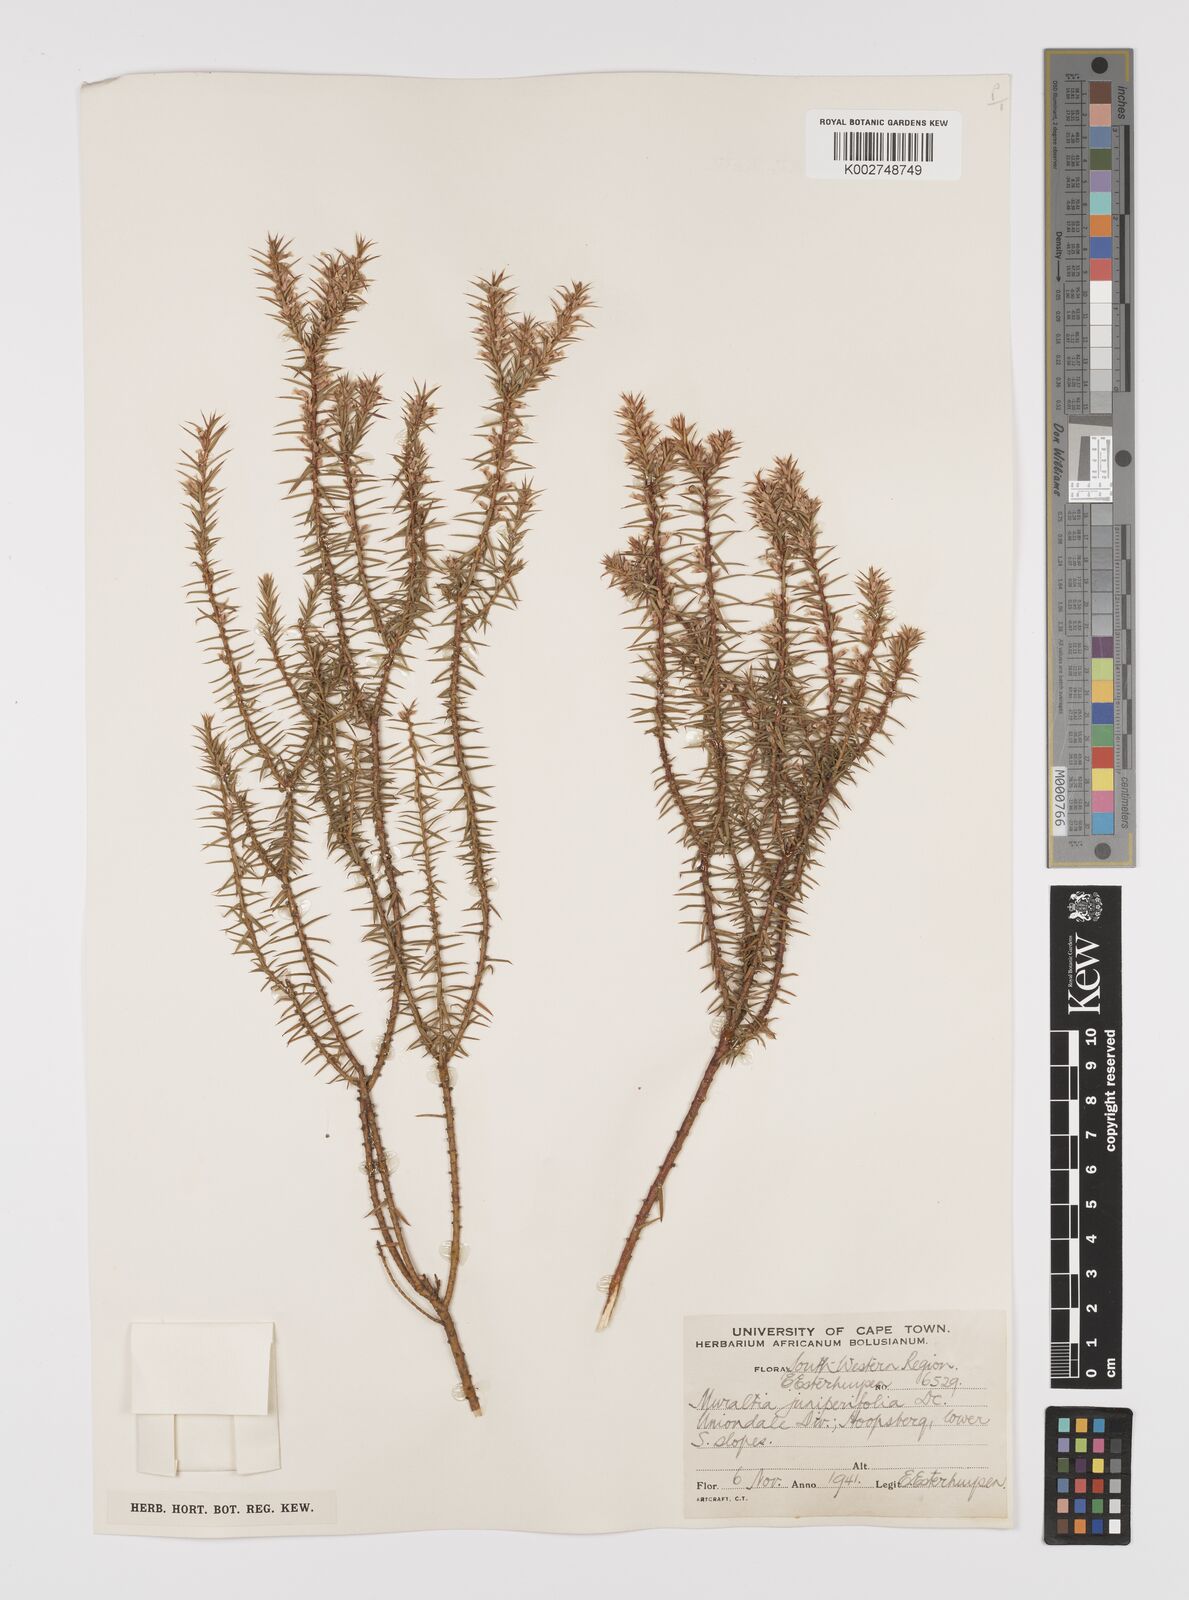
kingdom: Plantae
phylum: Tracheophyta
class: Magnoliopsida
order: Fabales
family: Polygalaceae
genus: Muraltia
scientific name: Muraltia juniperifolia
